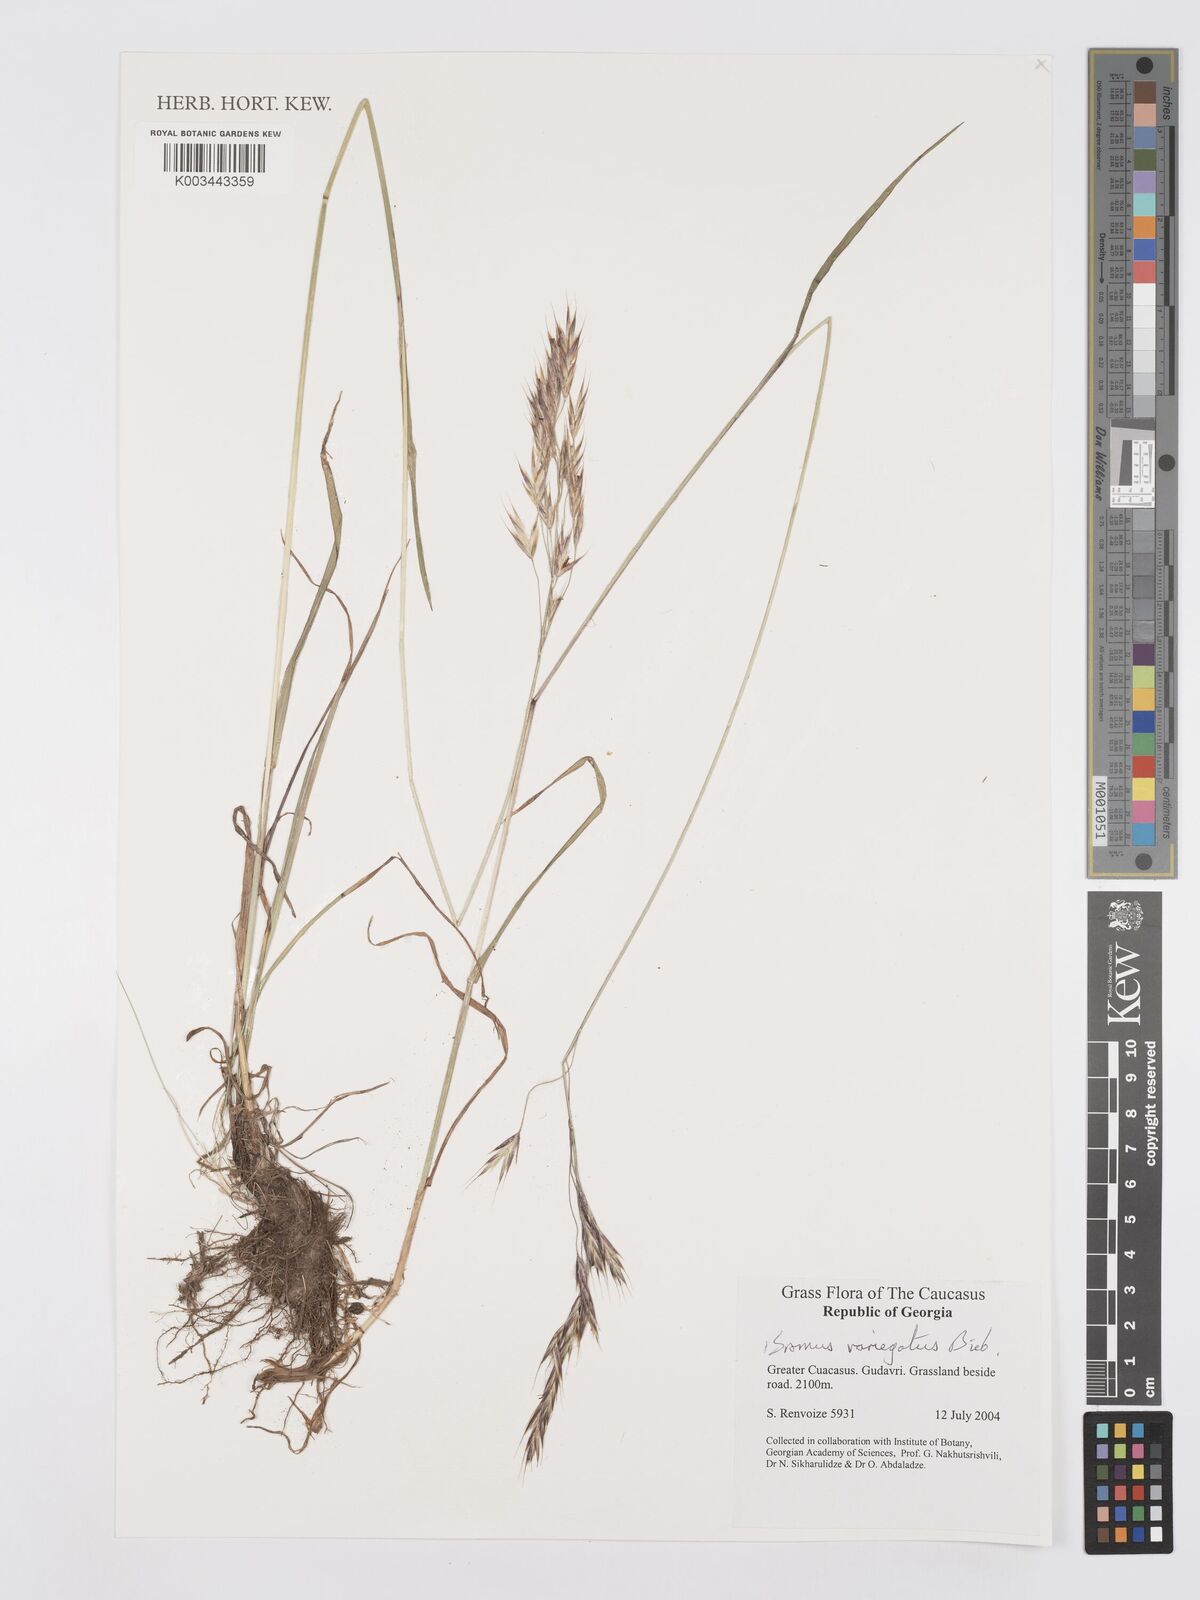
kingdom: Plantae
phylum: Tracheophyta
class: Liliopsida
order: Poales
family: Poaceae
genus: Bromus
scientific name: Bromus variegatus
